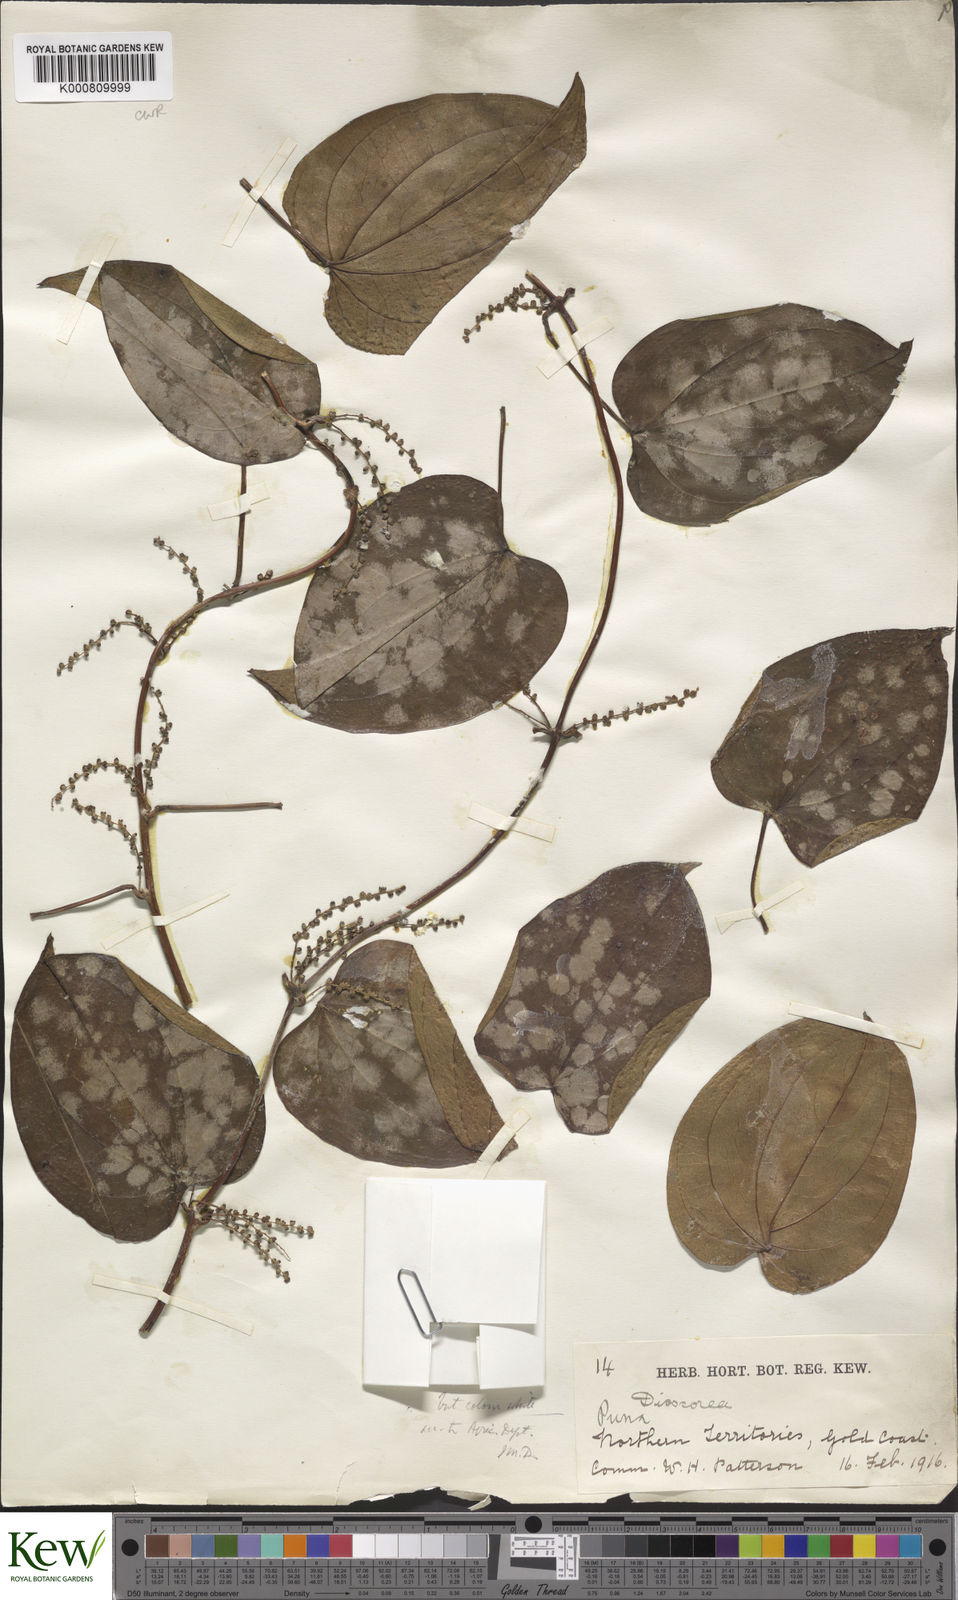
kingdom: Plantae
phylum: Tracheophyta
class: Liliopsida
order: Dioscoreales
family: Dioscoreaceae
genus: Dioscorea
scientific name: Dioscorea baya
